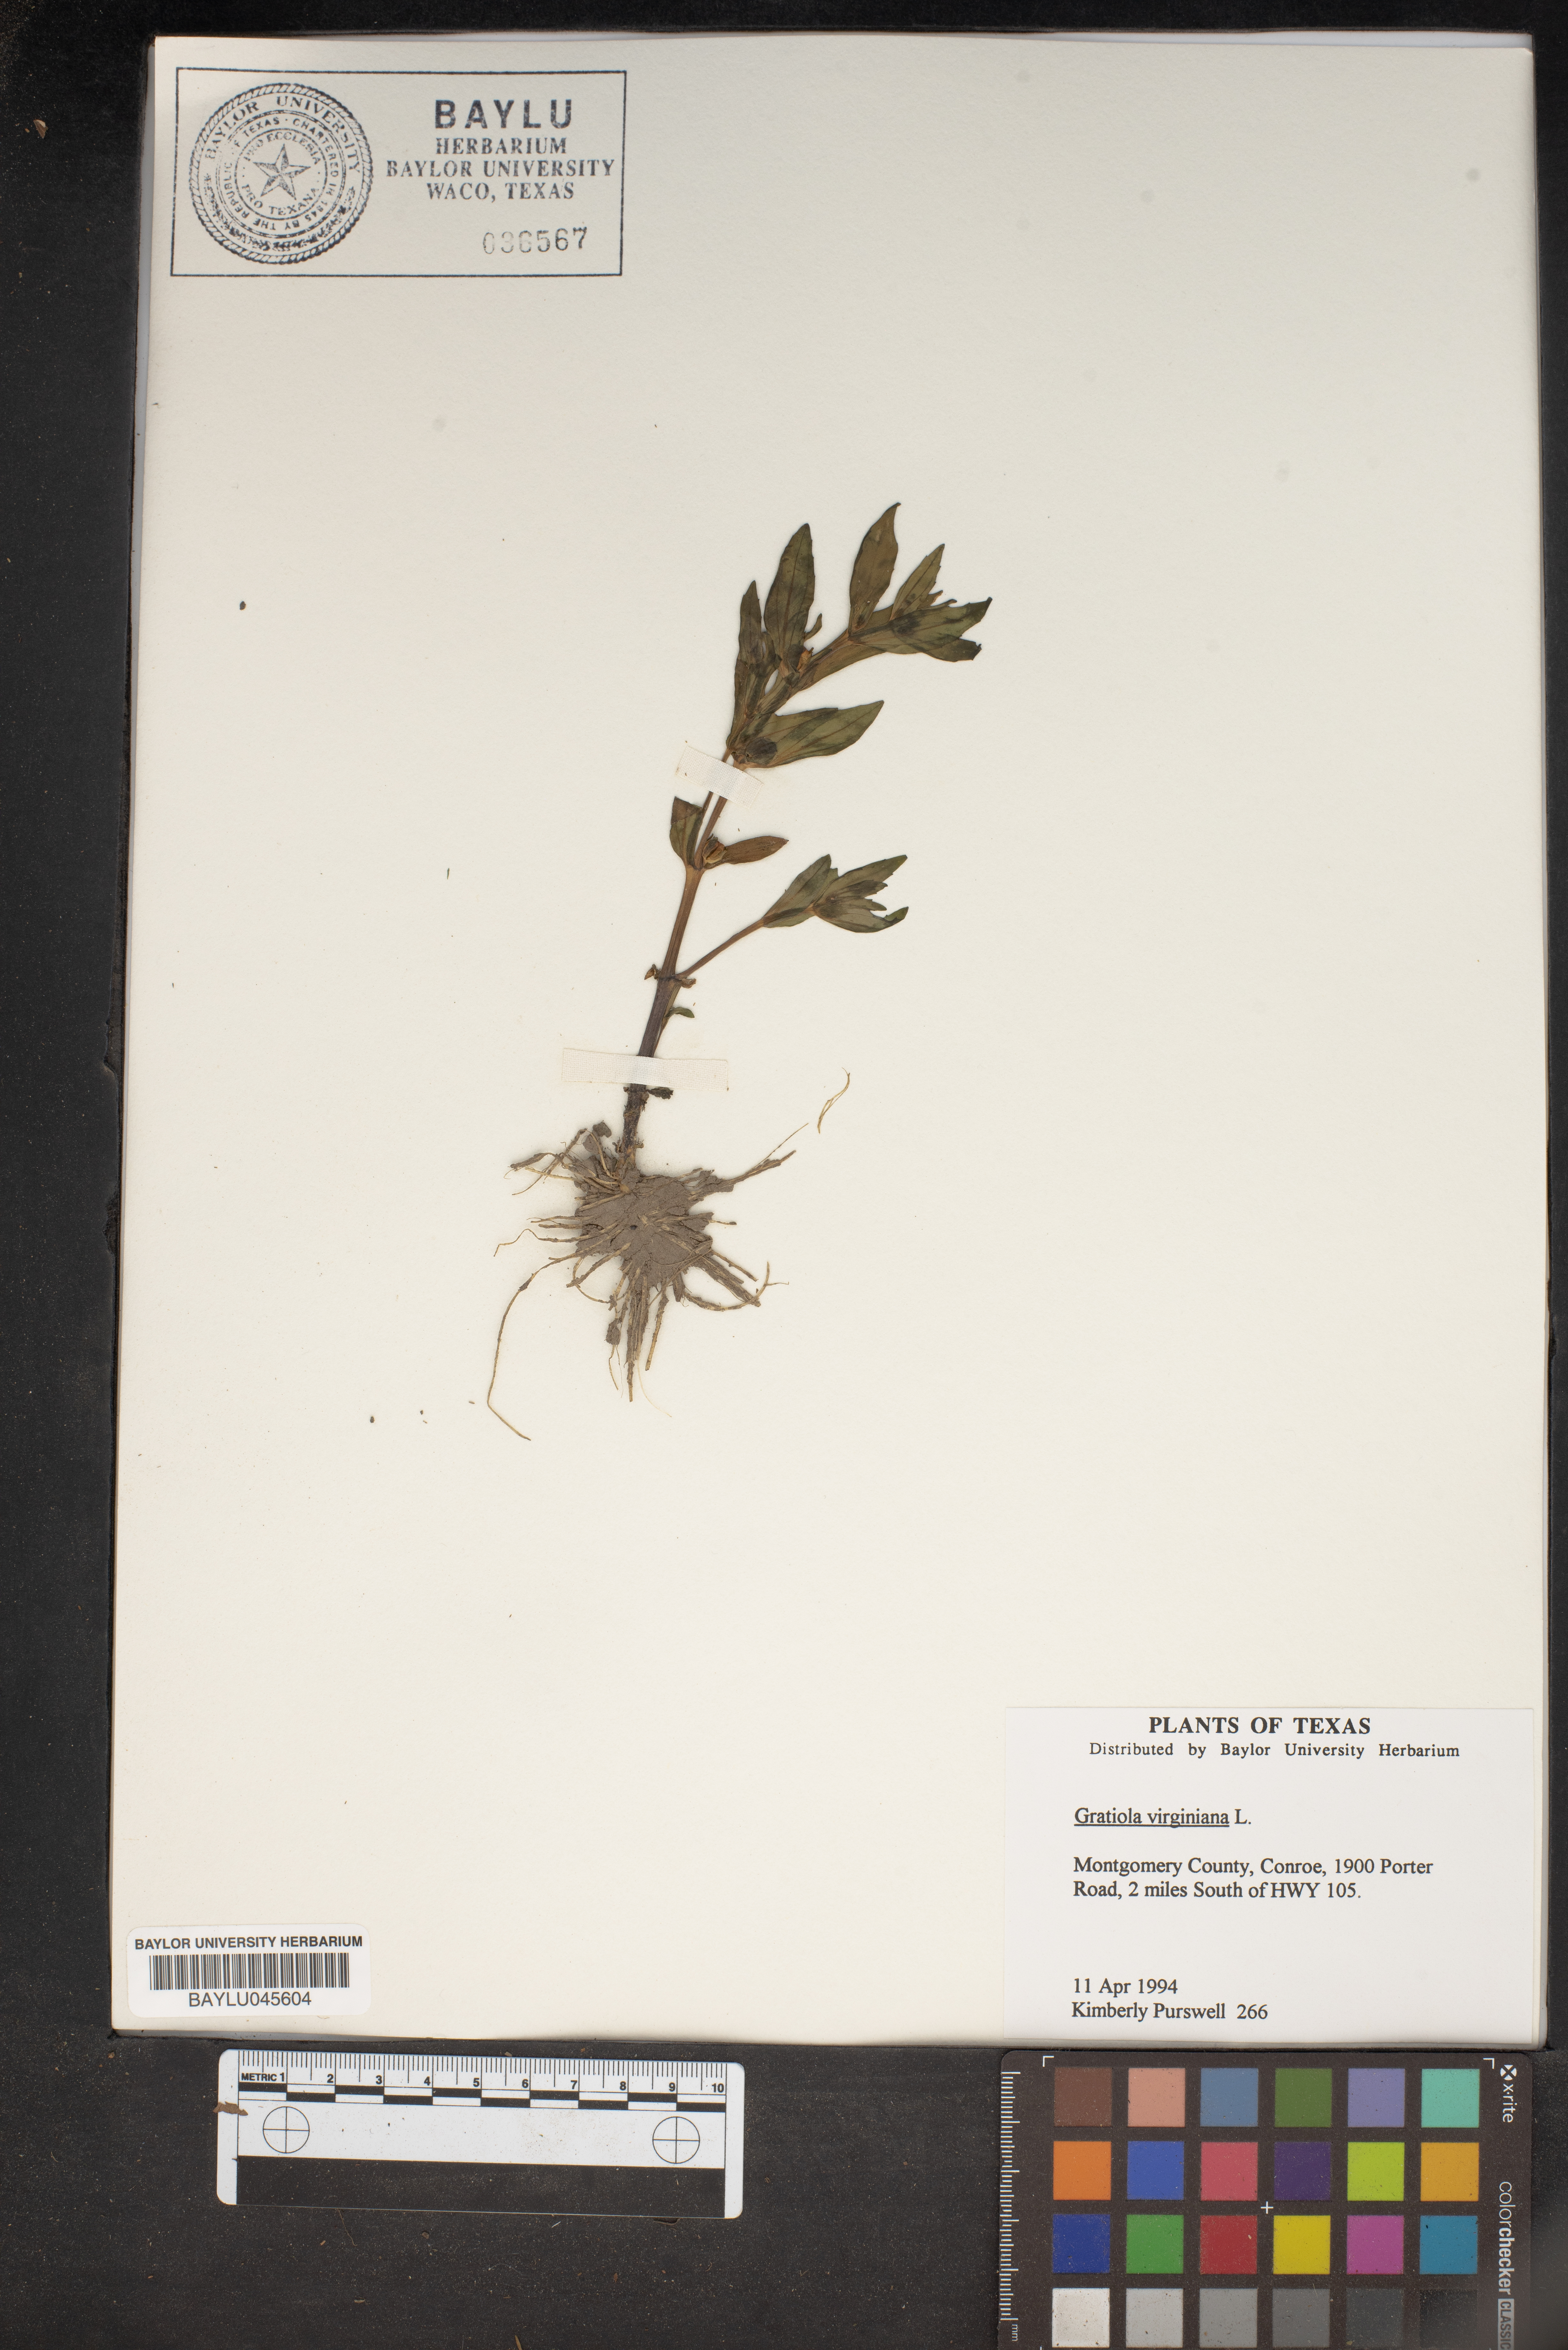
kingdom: Plantae
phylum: Tracheophyta
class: Magnoliopsida
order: Lamiales
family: Plantaginaceae
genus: Gratiola
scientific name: Gratiola virginiana
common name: Roundfruit hedgehyssop
